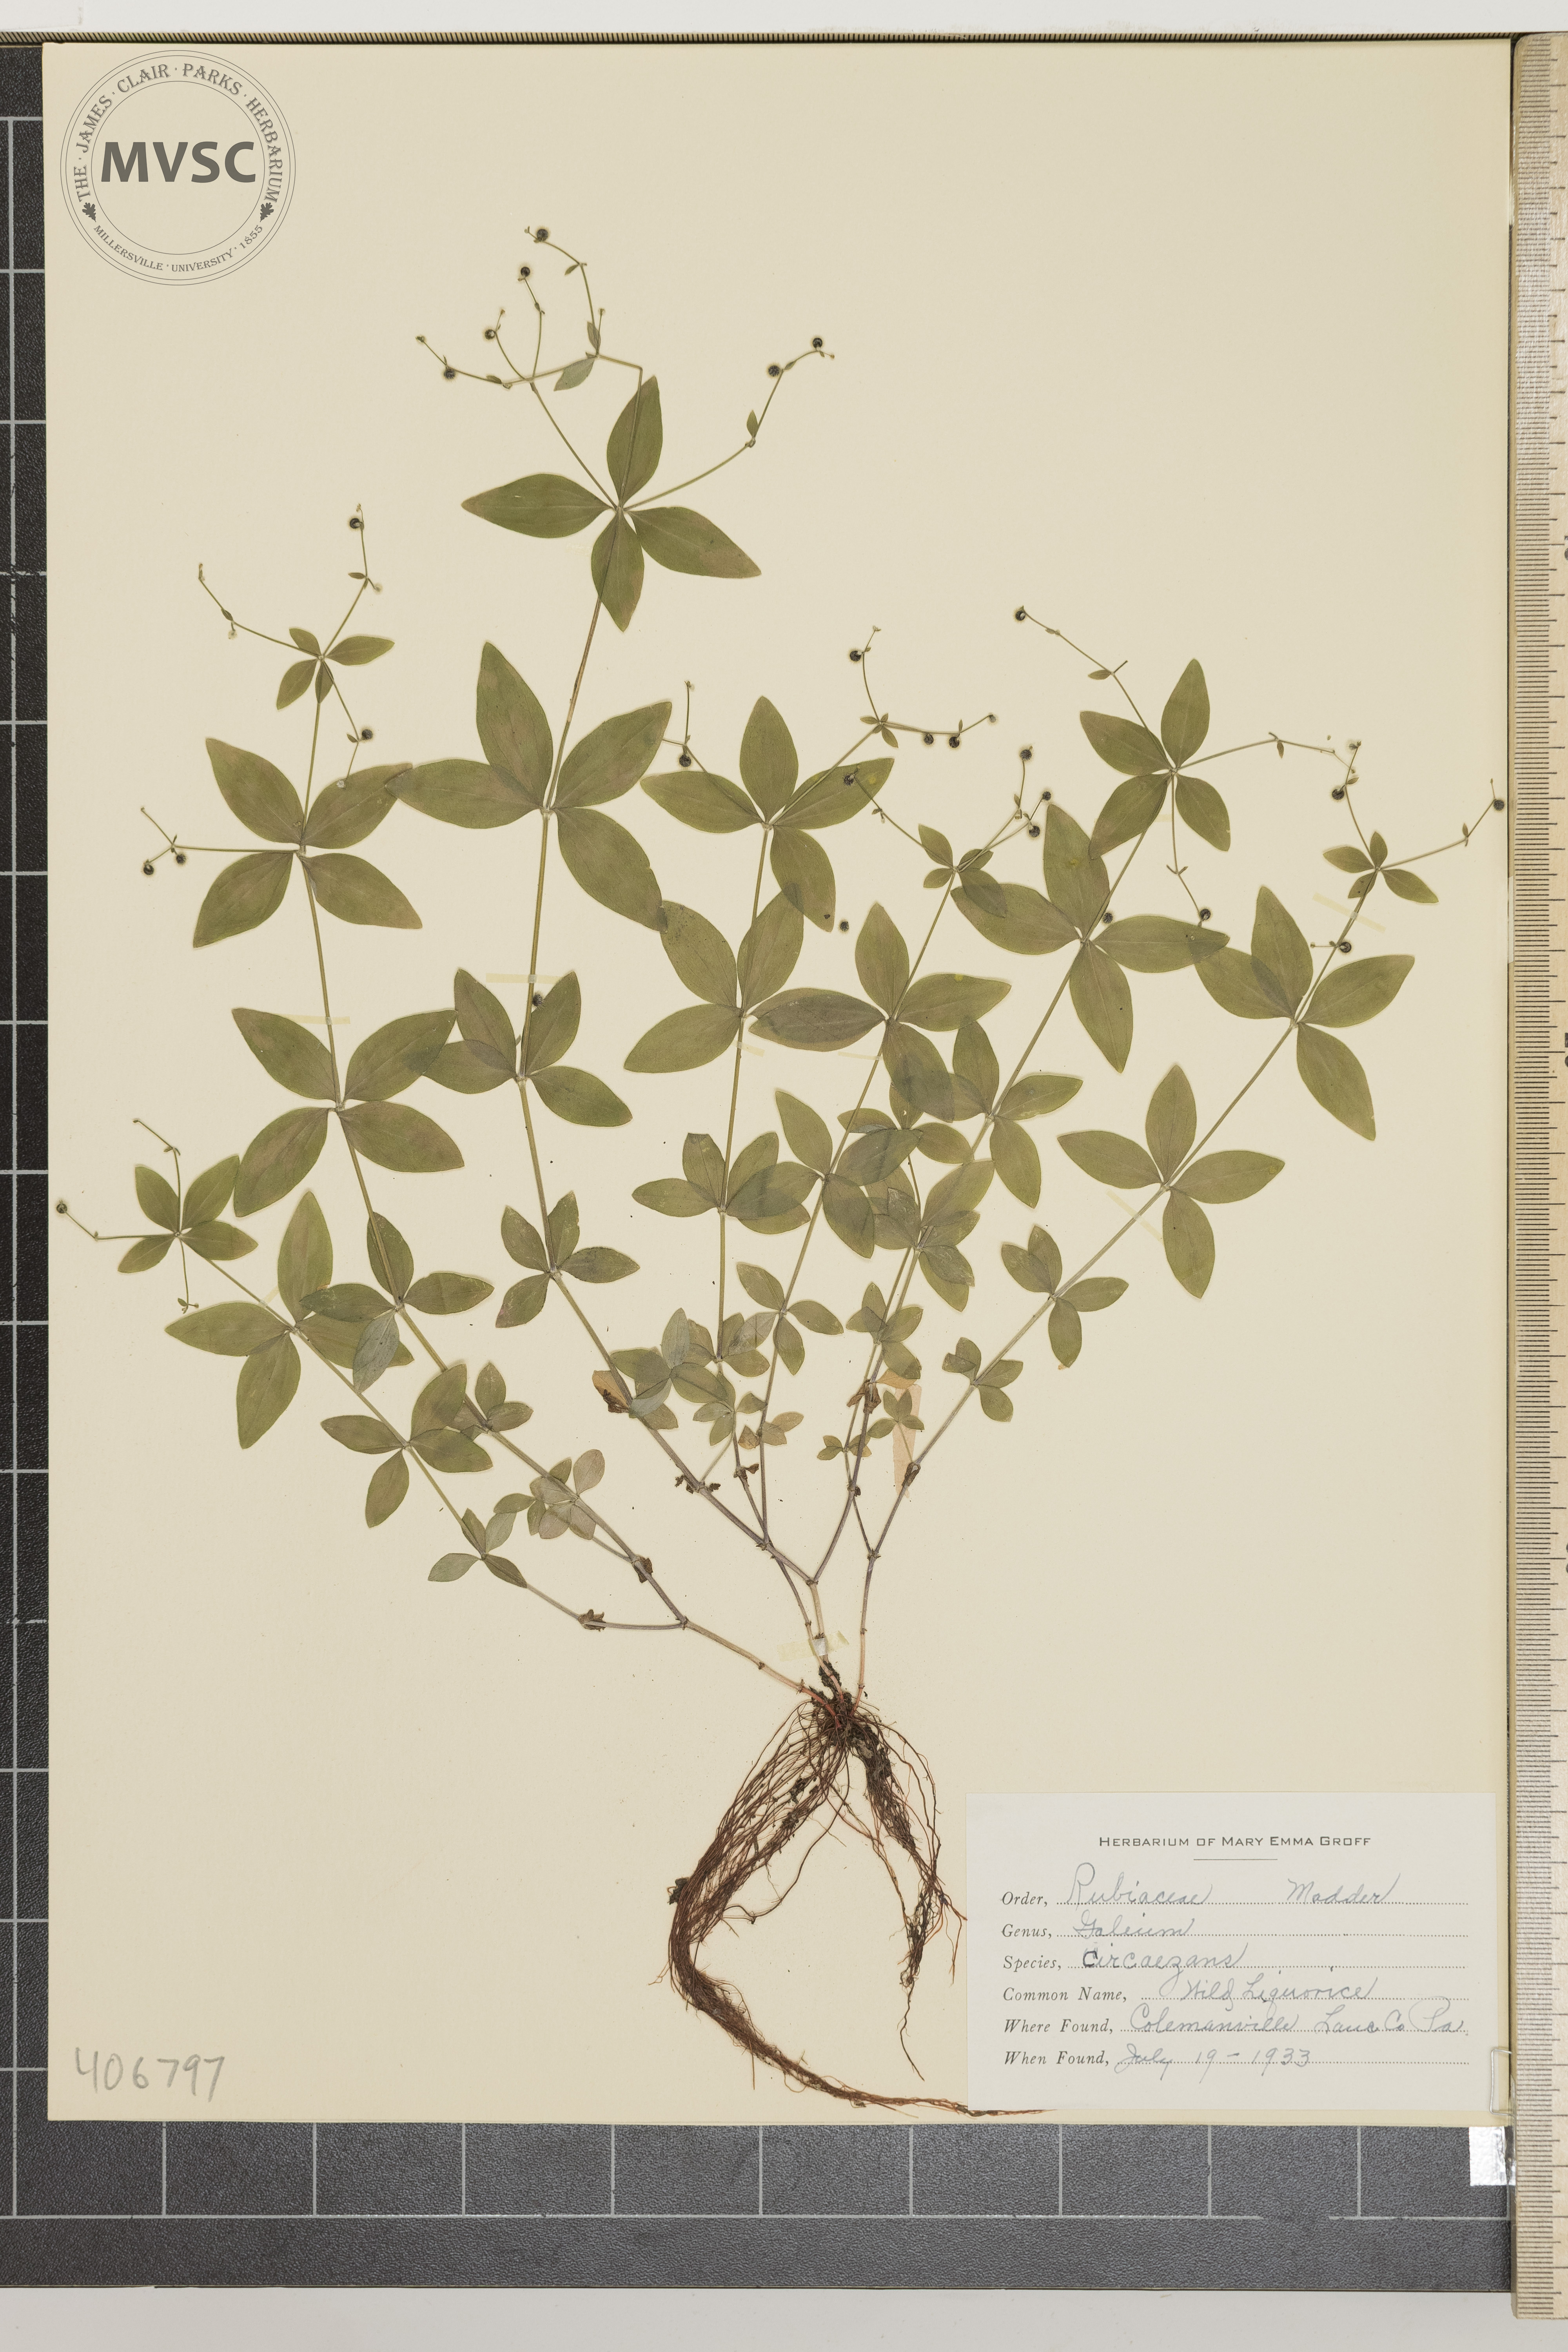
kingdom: Plantae
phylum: Tracheophyta
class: Magnoliopsida
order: Gentianales
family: Rubiaceae
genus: Galium
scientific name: Galium circaezans
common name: Wild Liquorice
